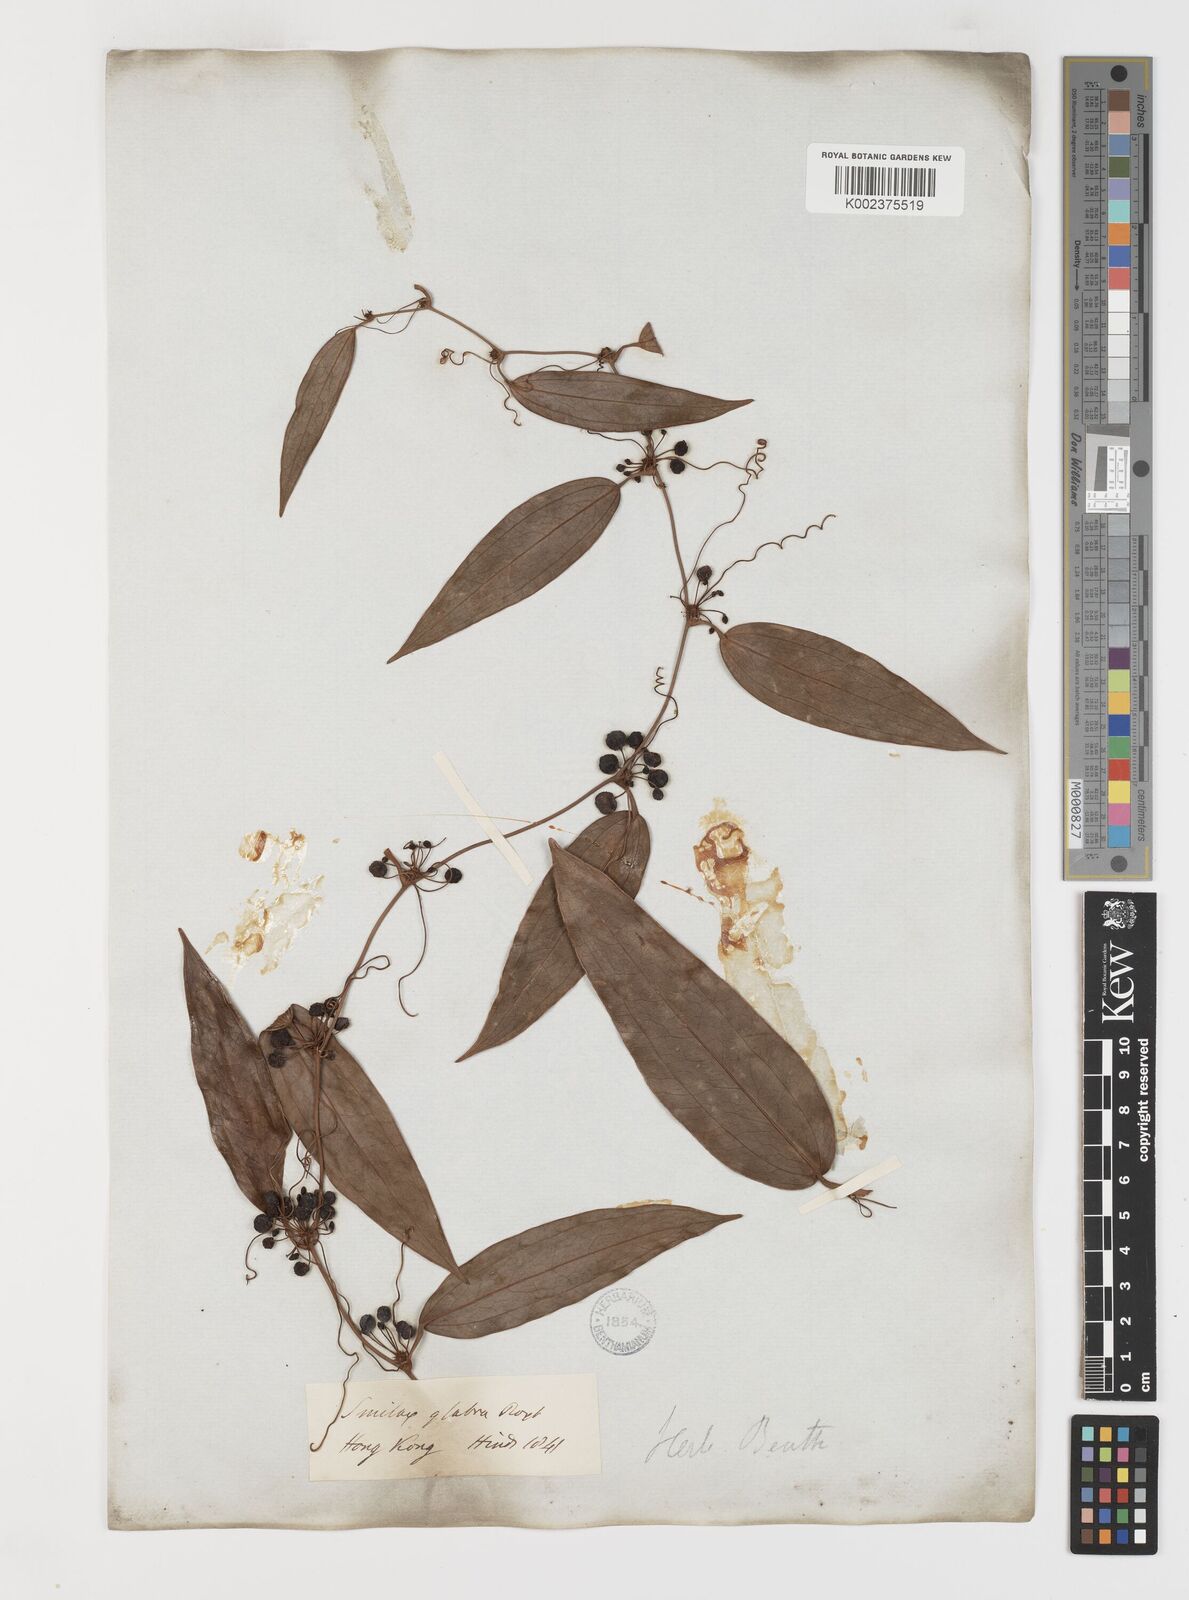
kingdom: Plantae
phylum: Tracheophyta
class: Liliopsida
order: Liliales
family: Smilacaceae
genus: Smilax
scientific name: Smilax glabra
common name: Chinese smilax
